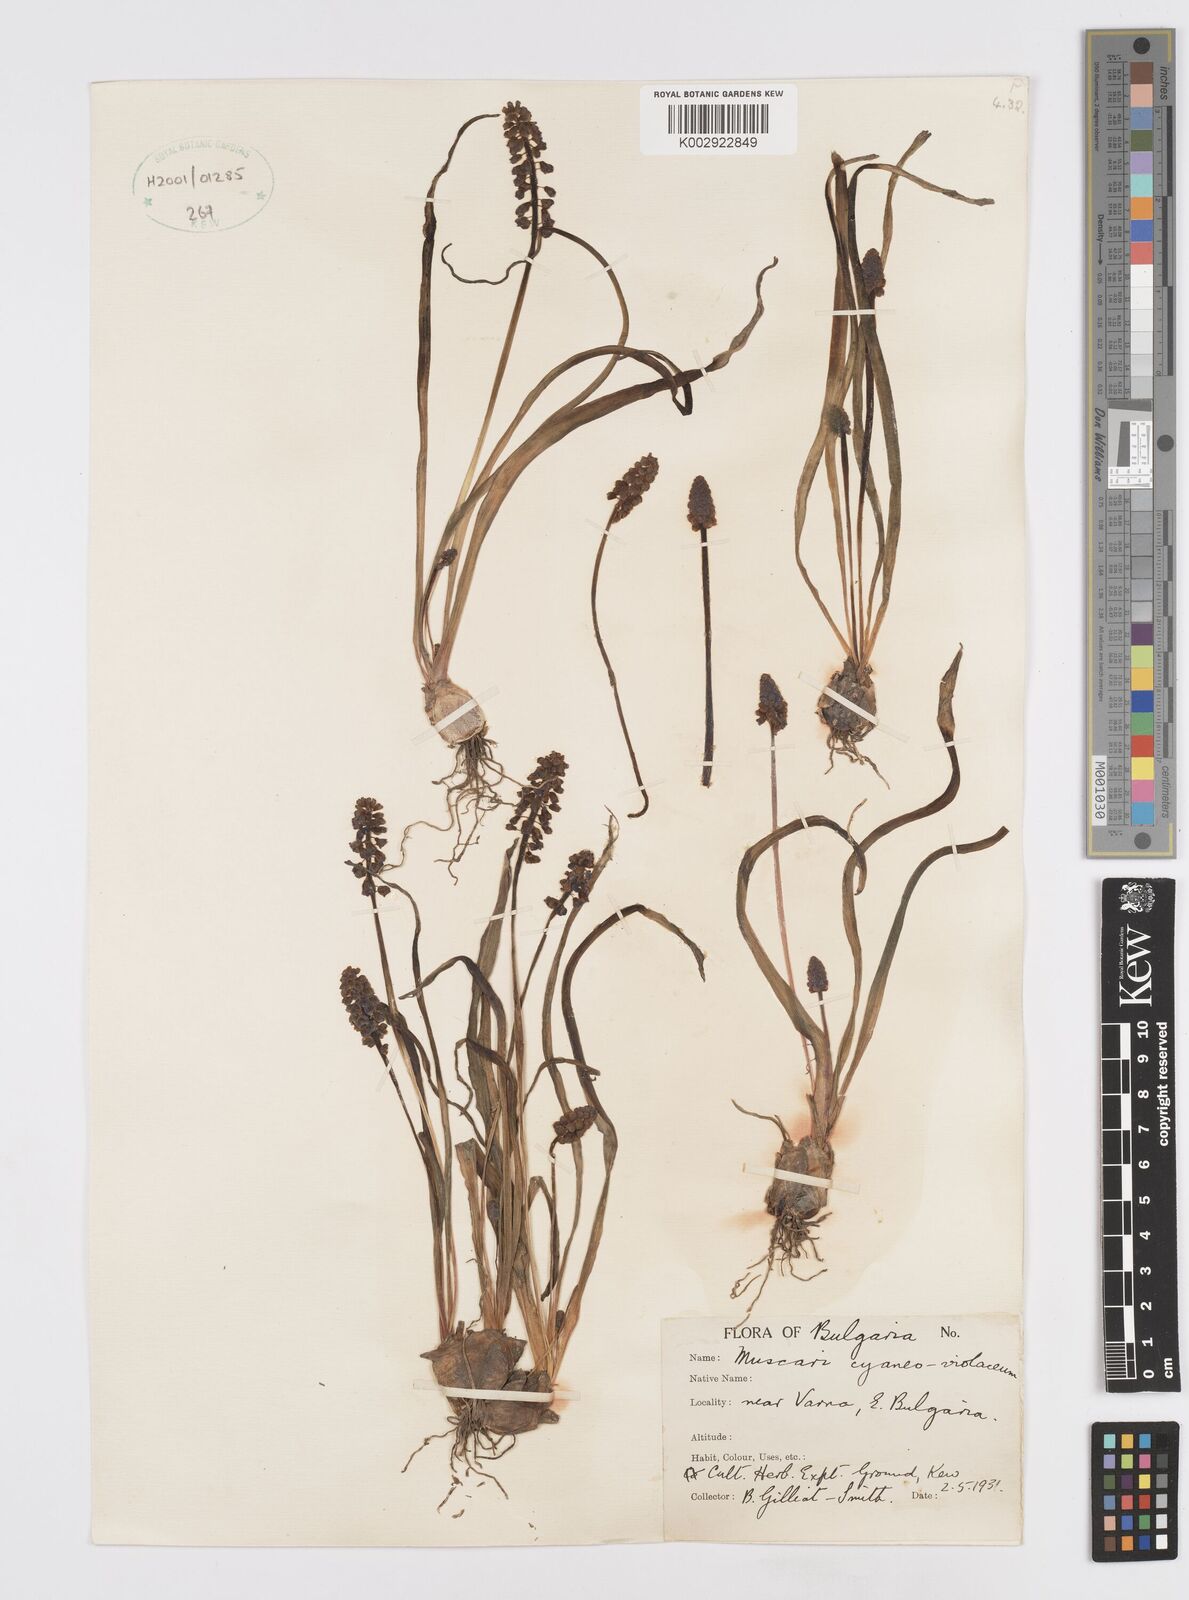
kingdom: Plantae
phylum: Tracheophyta
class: Liliopsida
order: Asparagales
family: Asparagaceae
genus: Muscari
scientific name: Muscari armeniacum
